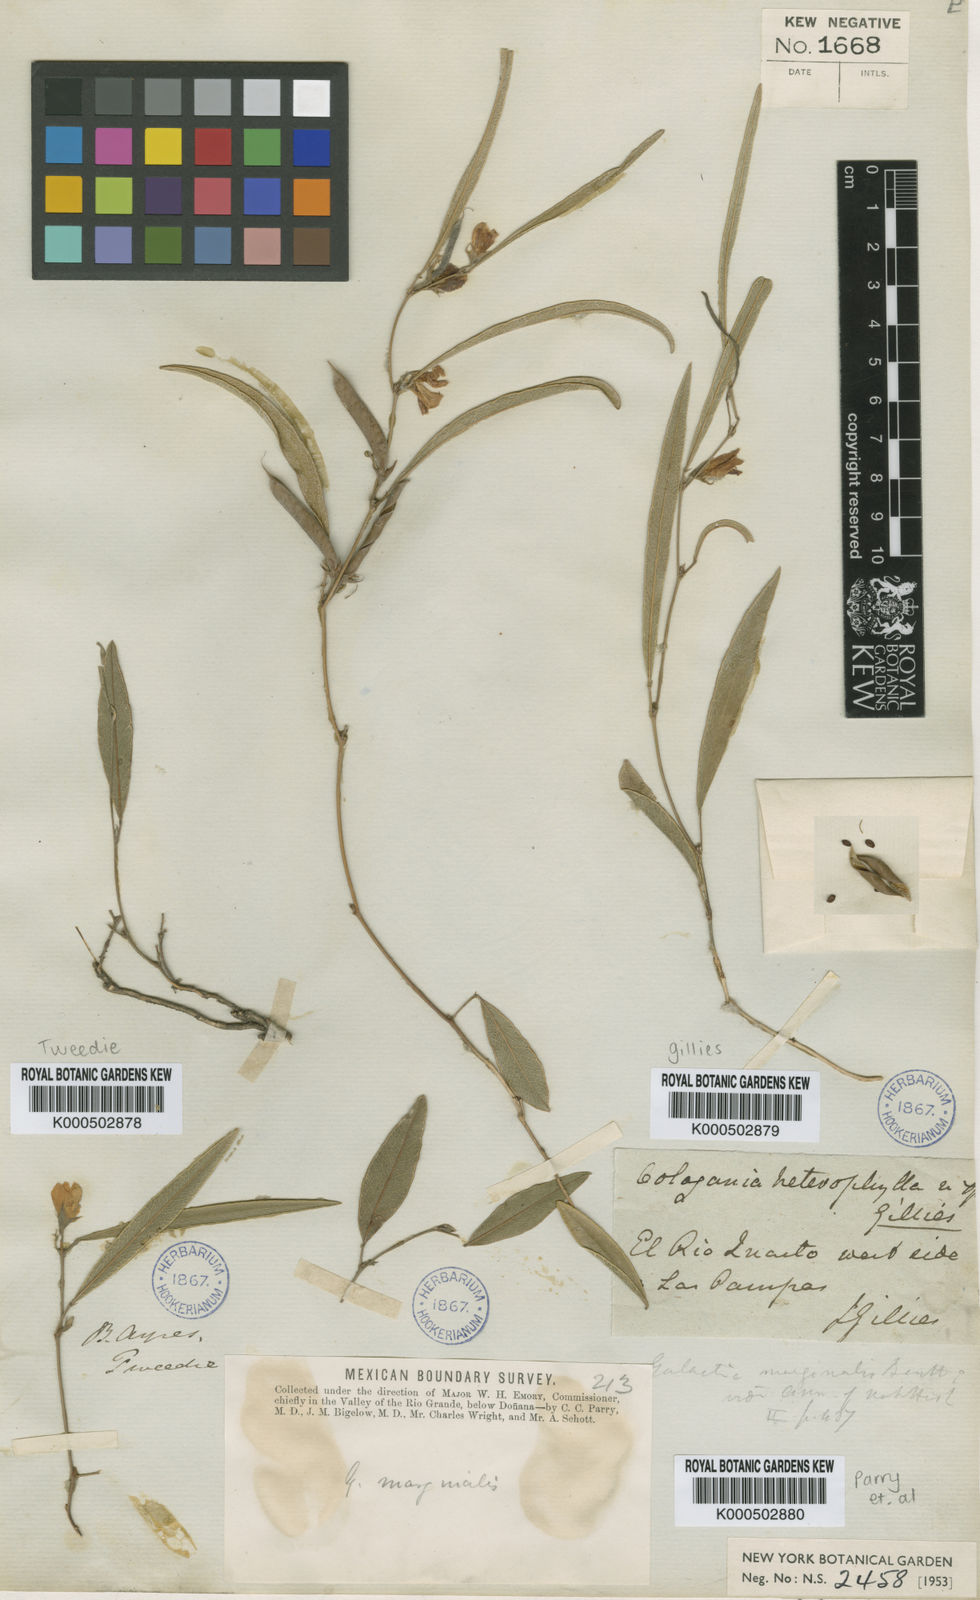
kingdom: Plantae
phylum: Tracheophyta
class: Magnoliopsida
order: Fabales
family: Fabaceae
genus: Nanogalactia
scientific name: Nanogalactia heterophylla
